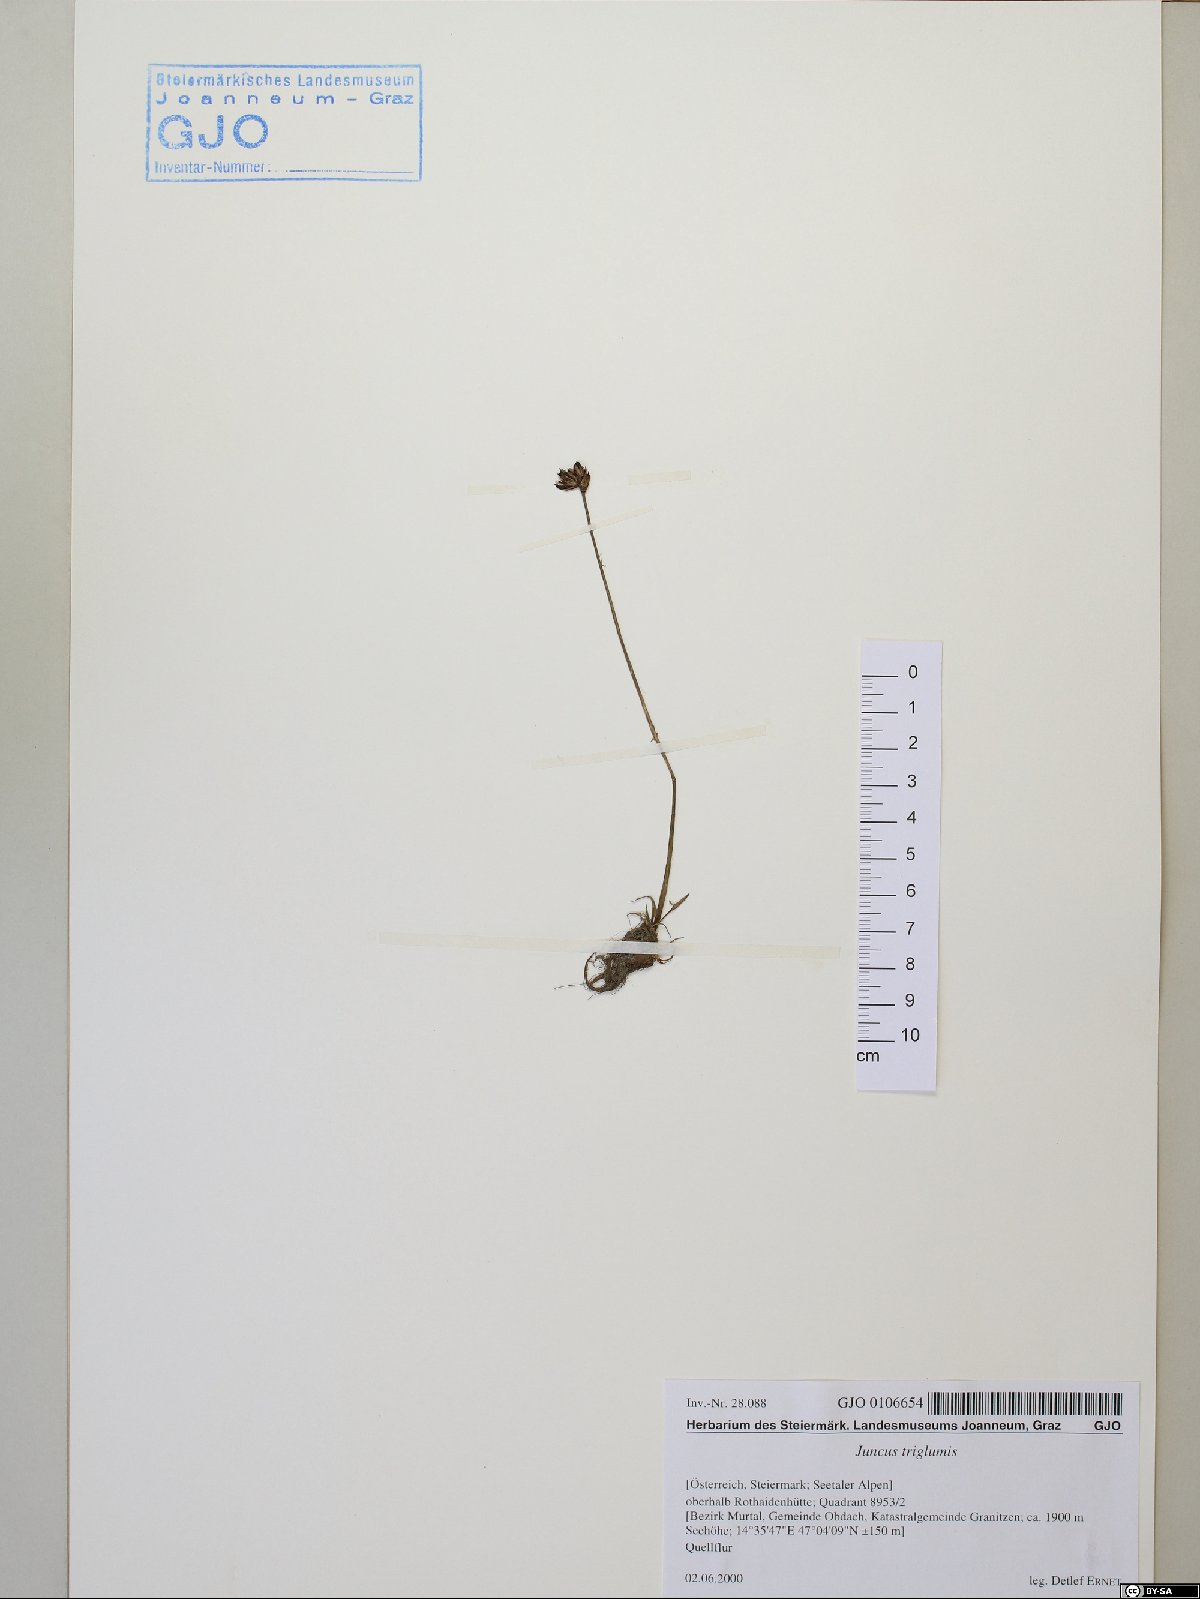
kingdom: Plantae
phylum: Tracheophyta
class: Liliopsida
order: Poales
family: Juncaceae
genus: Juncus
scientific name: Juncus triglumis
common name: Three-flowered rush
